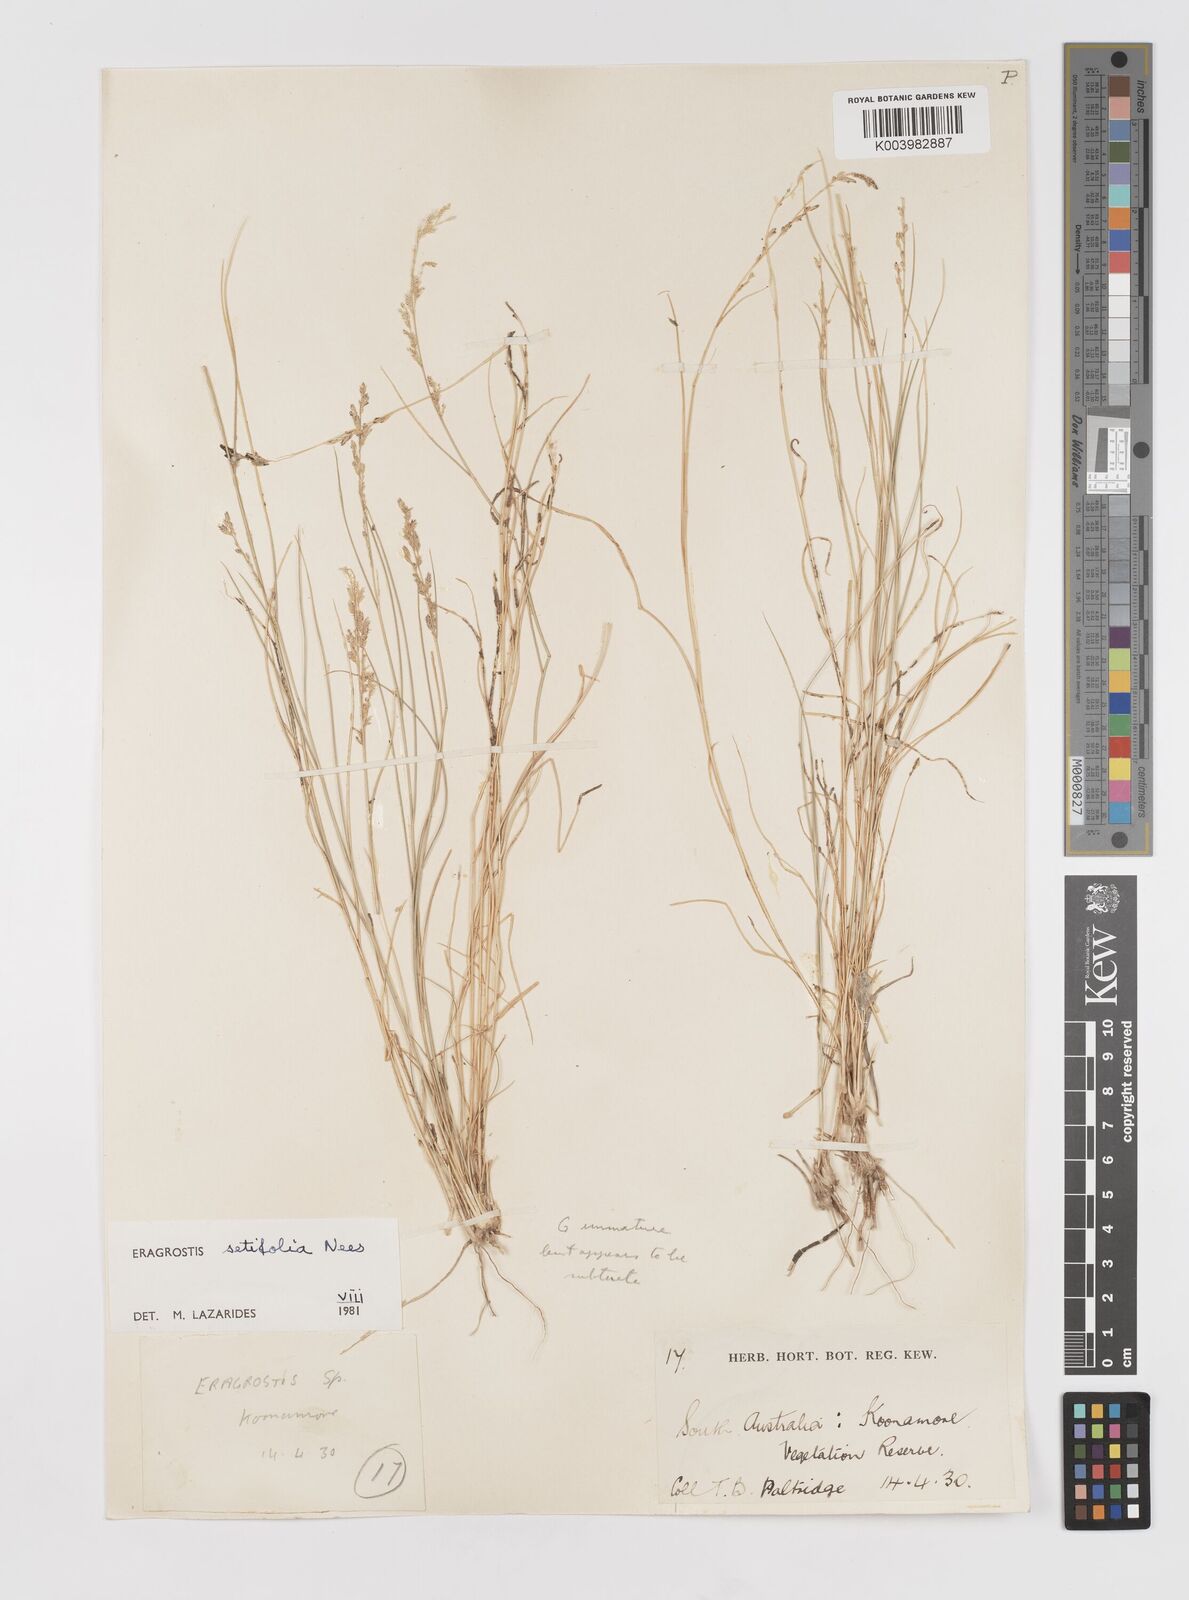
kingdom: Plantae
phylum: Tracheophyta
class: Liliopsida
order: Poales
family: Poaceae
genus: Eragrostis
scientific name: Eragrostis setifolia
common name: Bristleleaf lovegrass
